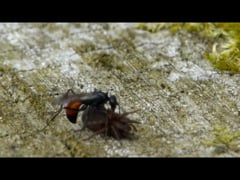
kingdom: Animalia
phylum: Arthropoda
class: Insecta
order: Hymenoptera
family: Pompilidae
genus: Arachnospila
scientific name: Arachnospila
